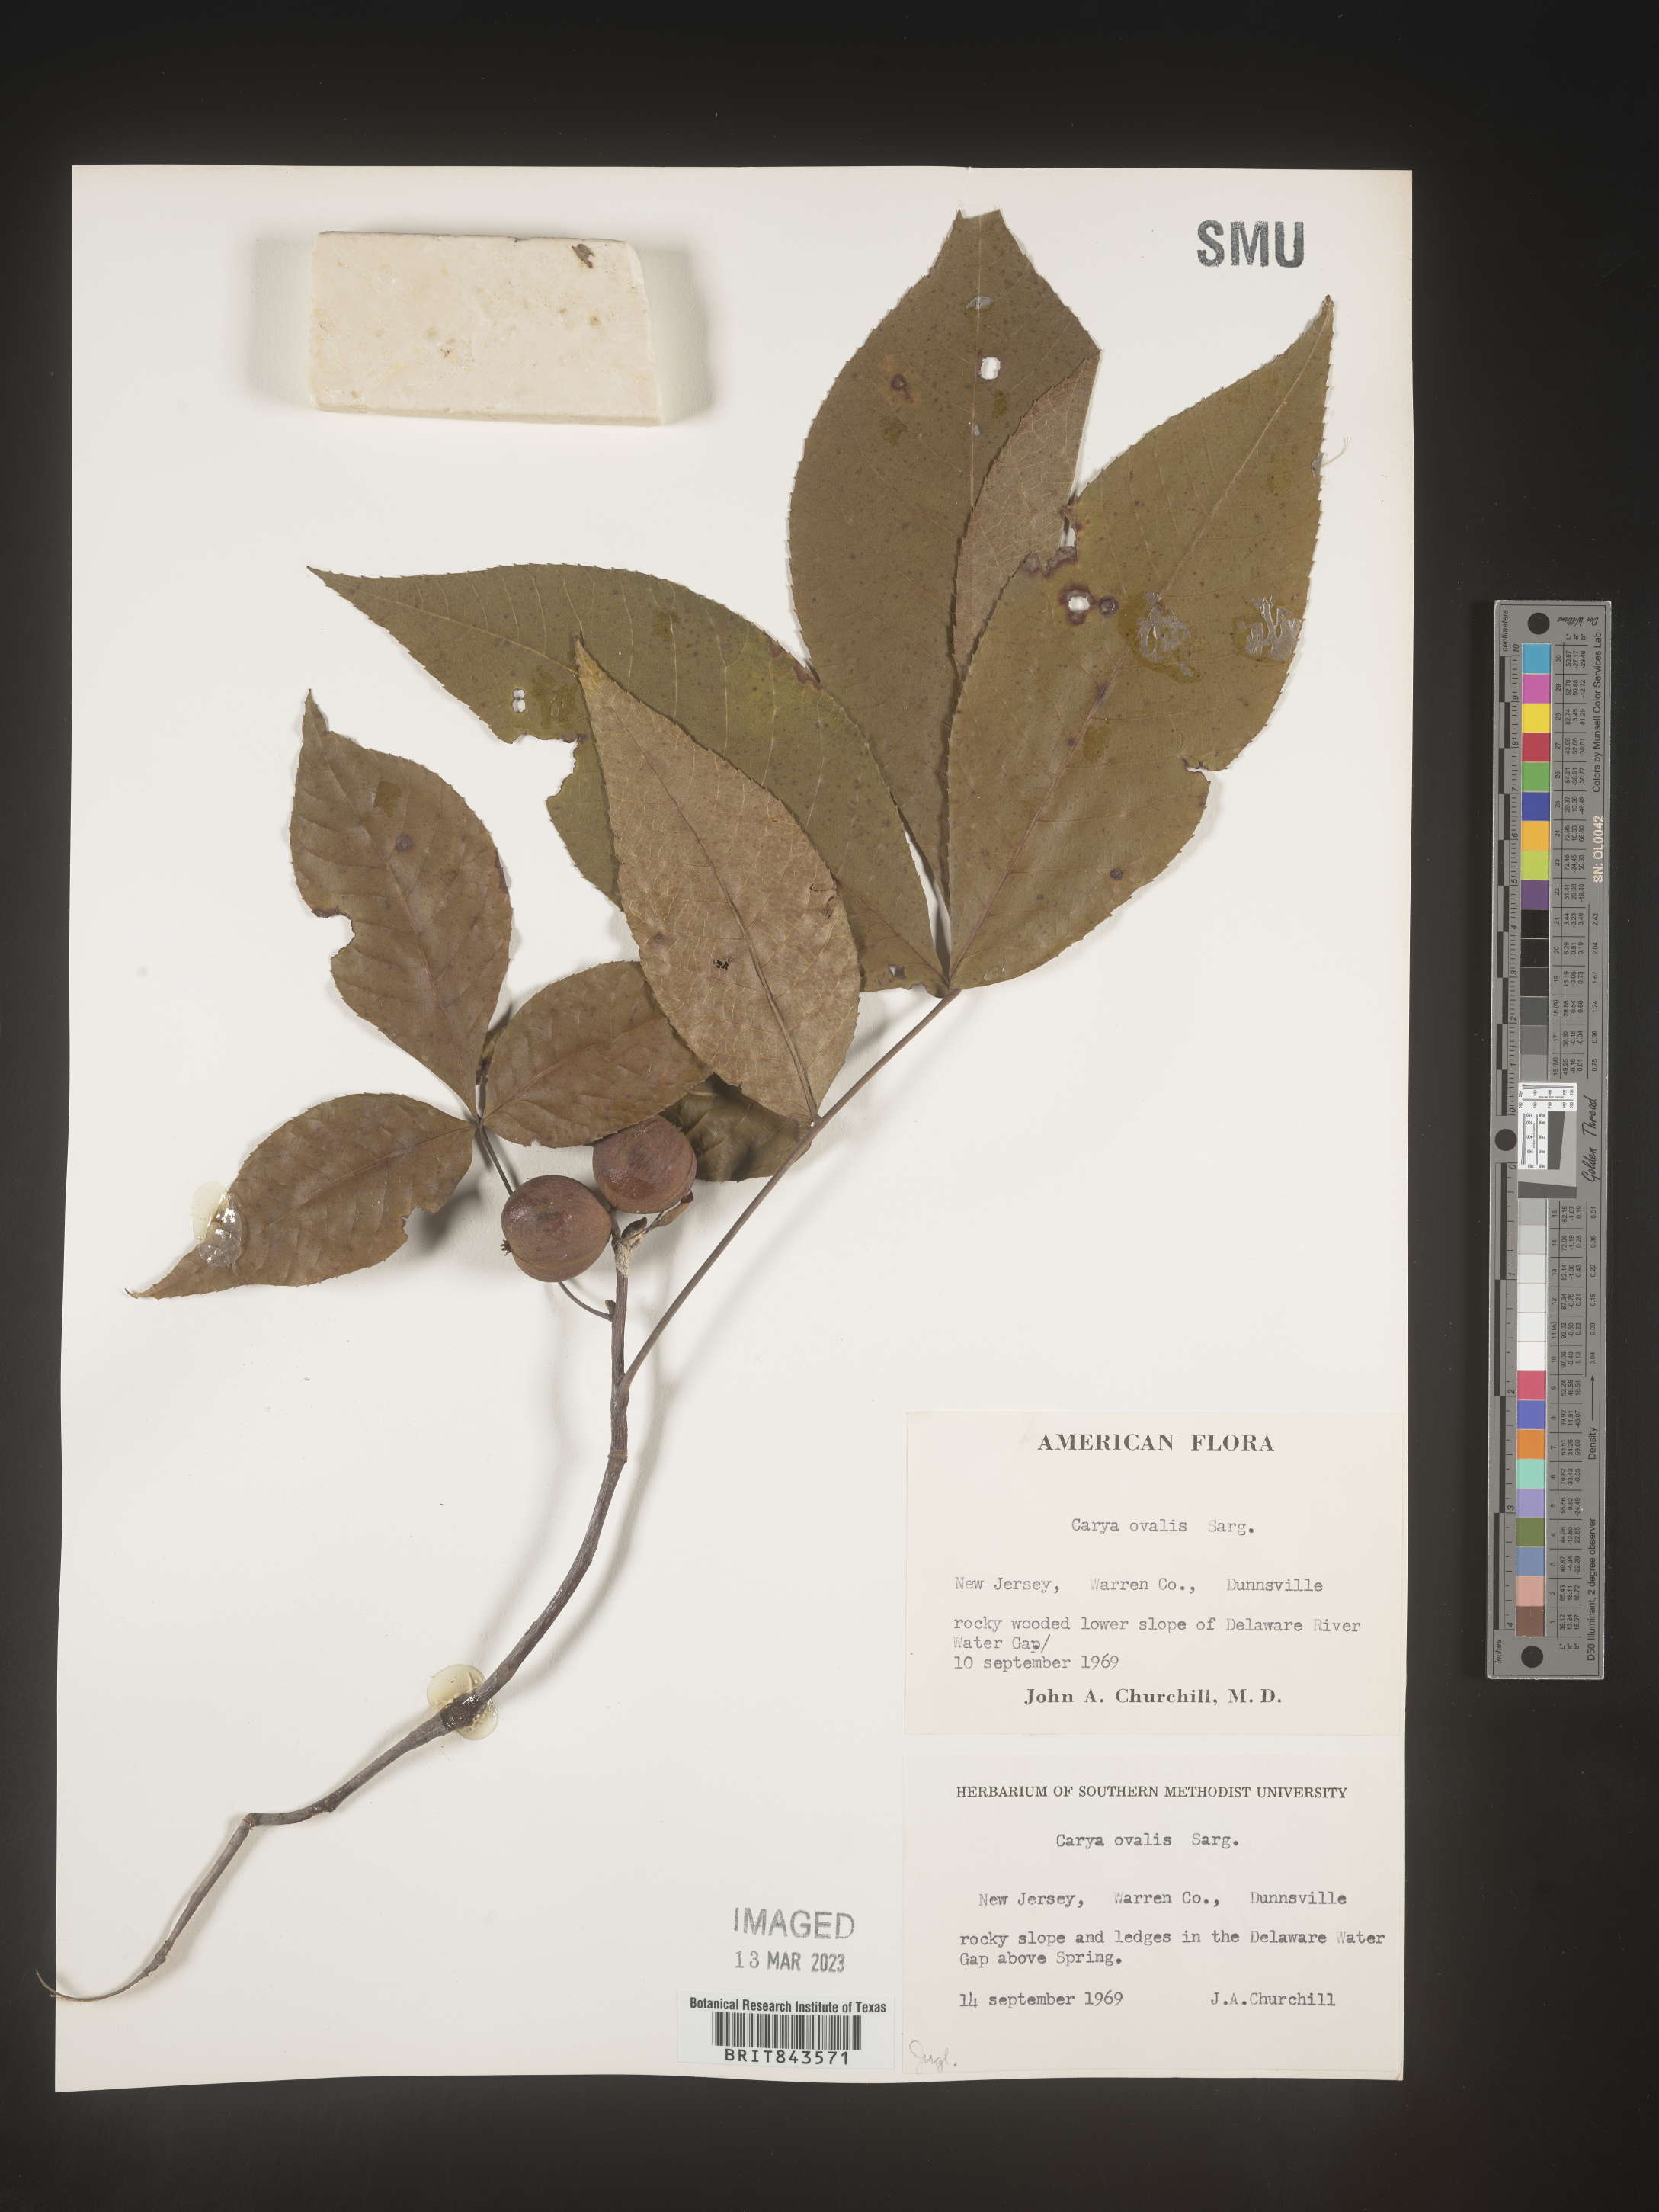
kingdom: Plantae
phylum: Tracheophyta
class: Magnoliopsida
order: Fagales
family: Juglandaceae
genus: Carya
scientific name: Carya ovalis
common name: False shagbark
